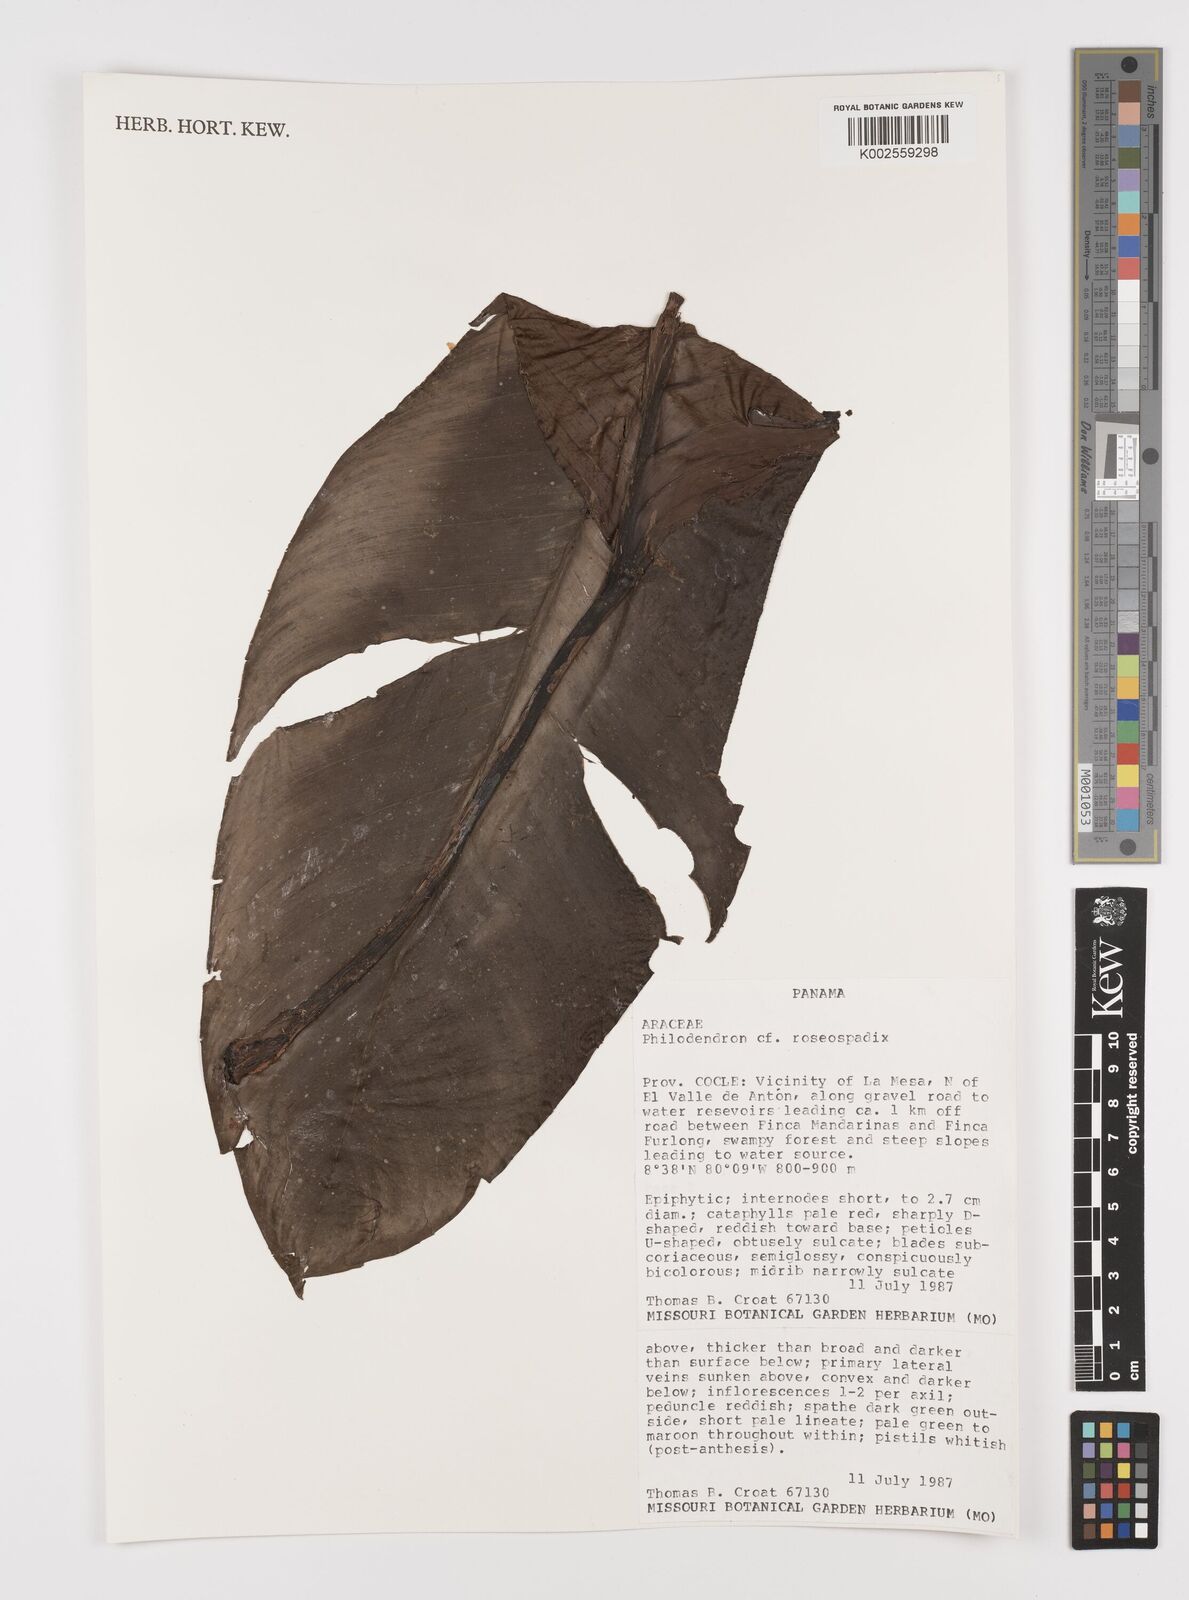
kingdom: Plantae
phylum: Tracheophyta
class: Liliopsida
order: Alismatales
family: Araceae
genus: Philodendron
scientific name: Philodendron roseospathum
